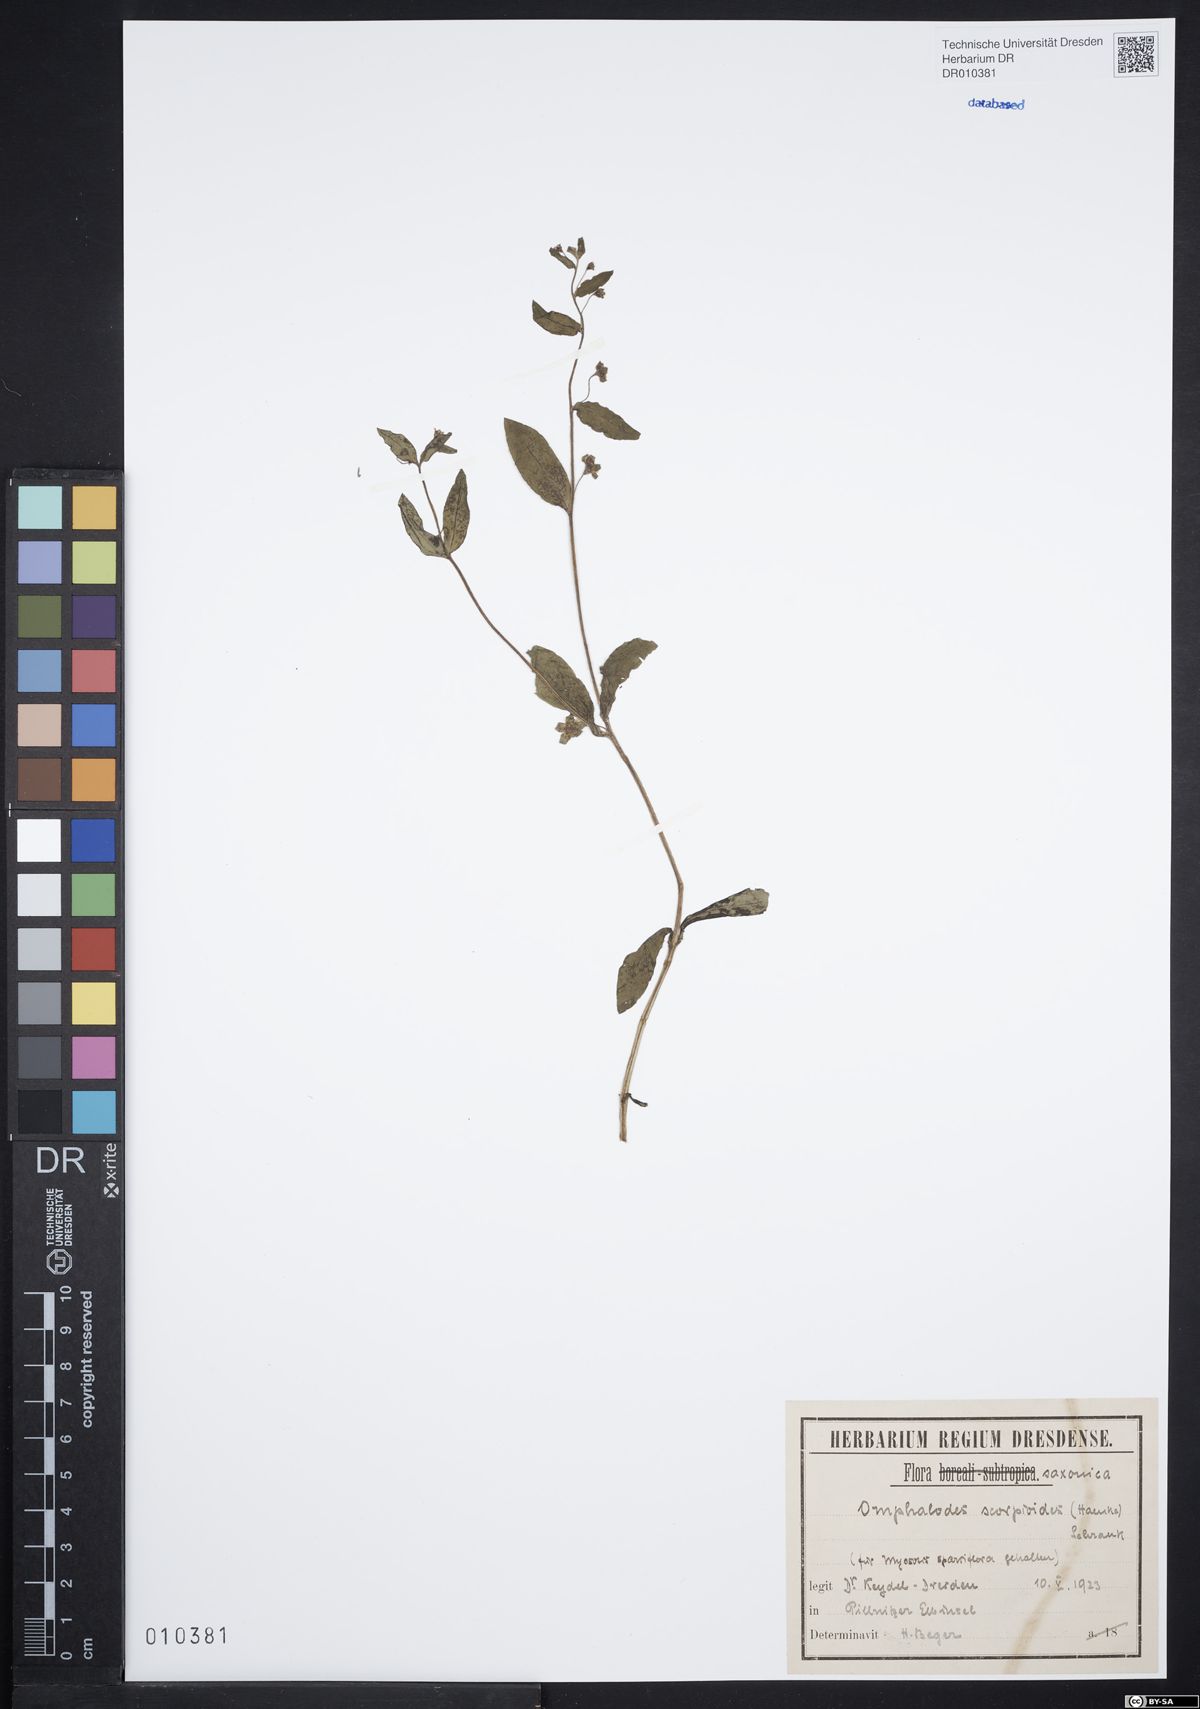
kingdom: Plantae
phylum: Tracheophyta
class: Magnoliopsida
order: Boraginales
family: Boraginaceae
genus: Memoremea
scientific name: Memoremea scorpioides
